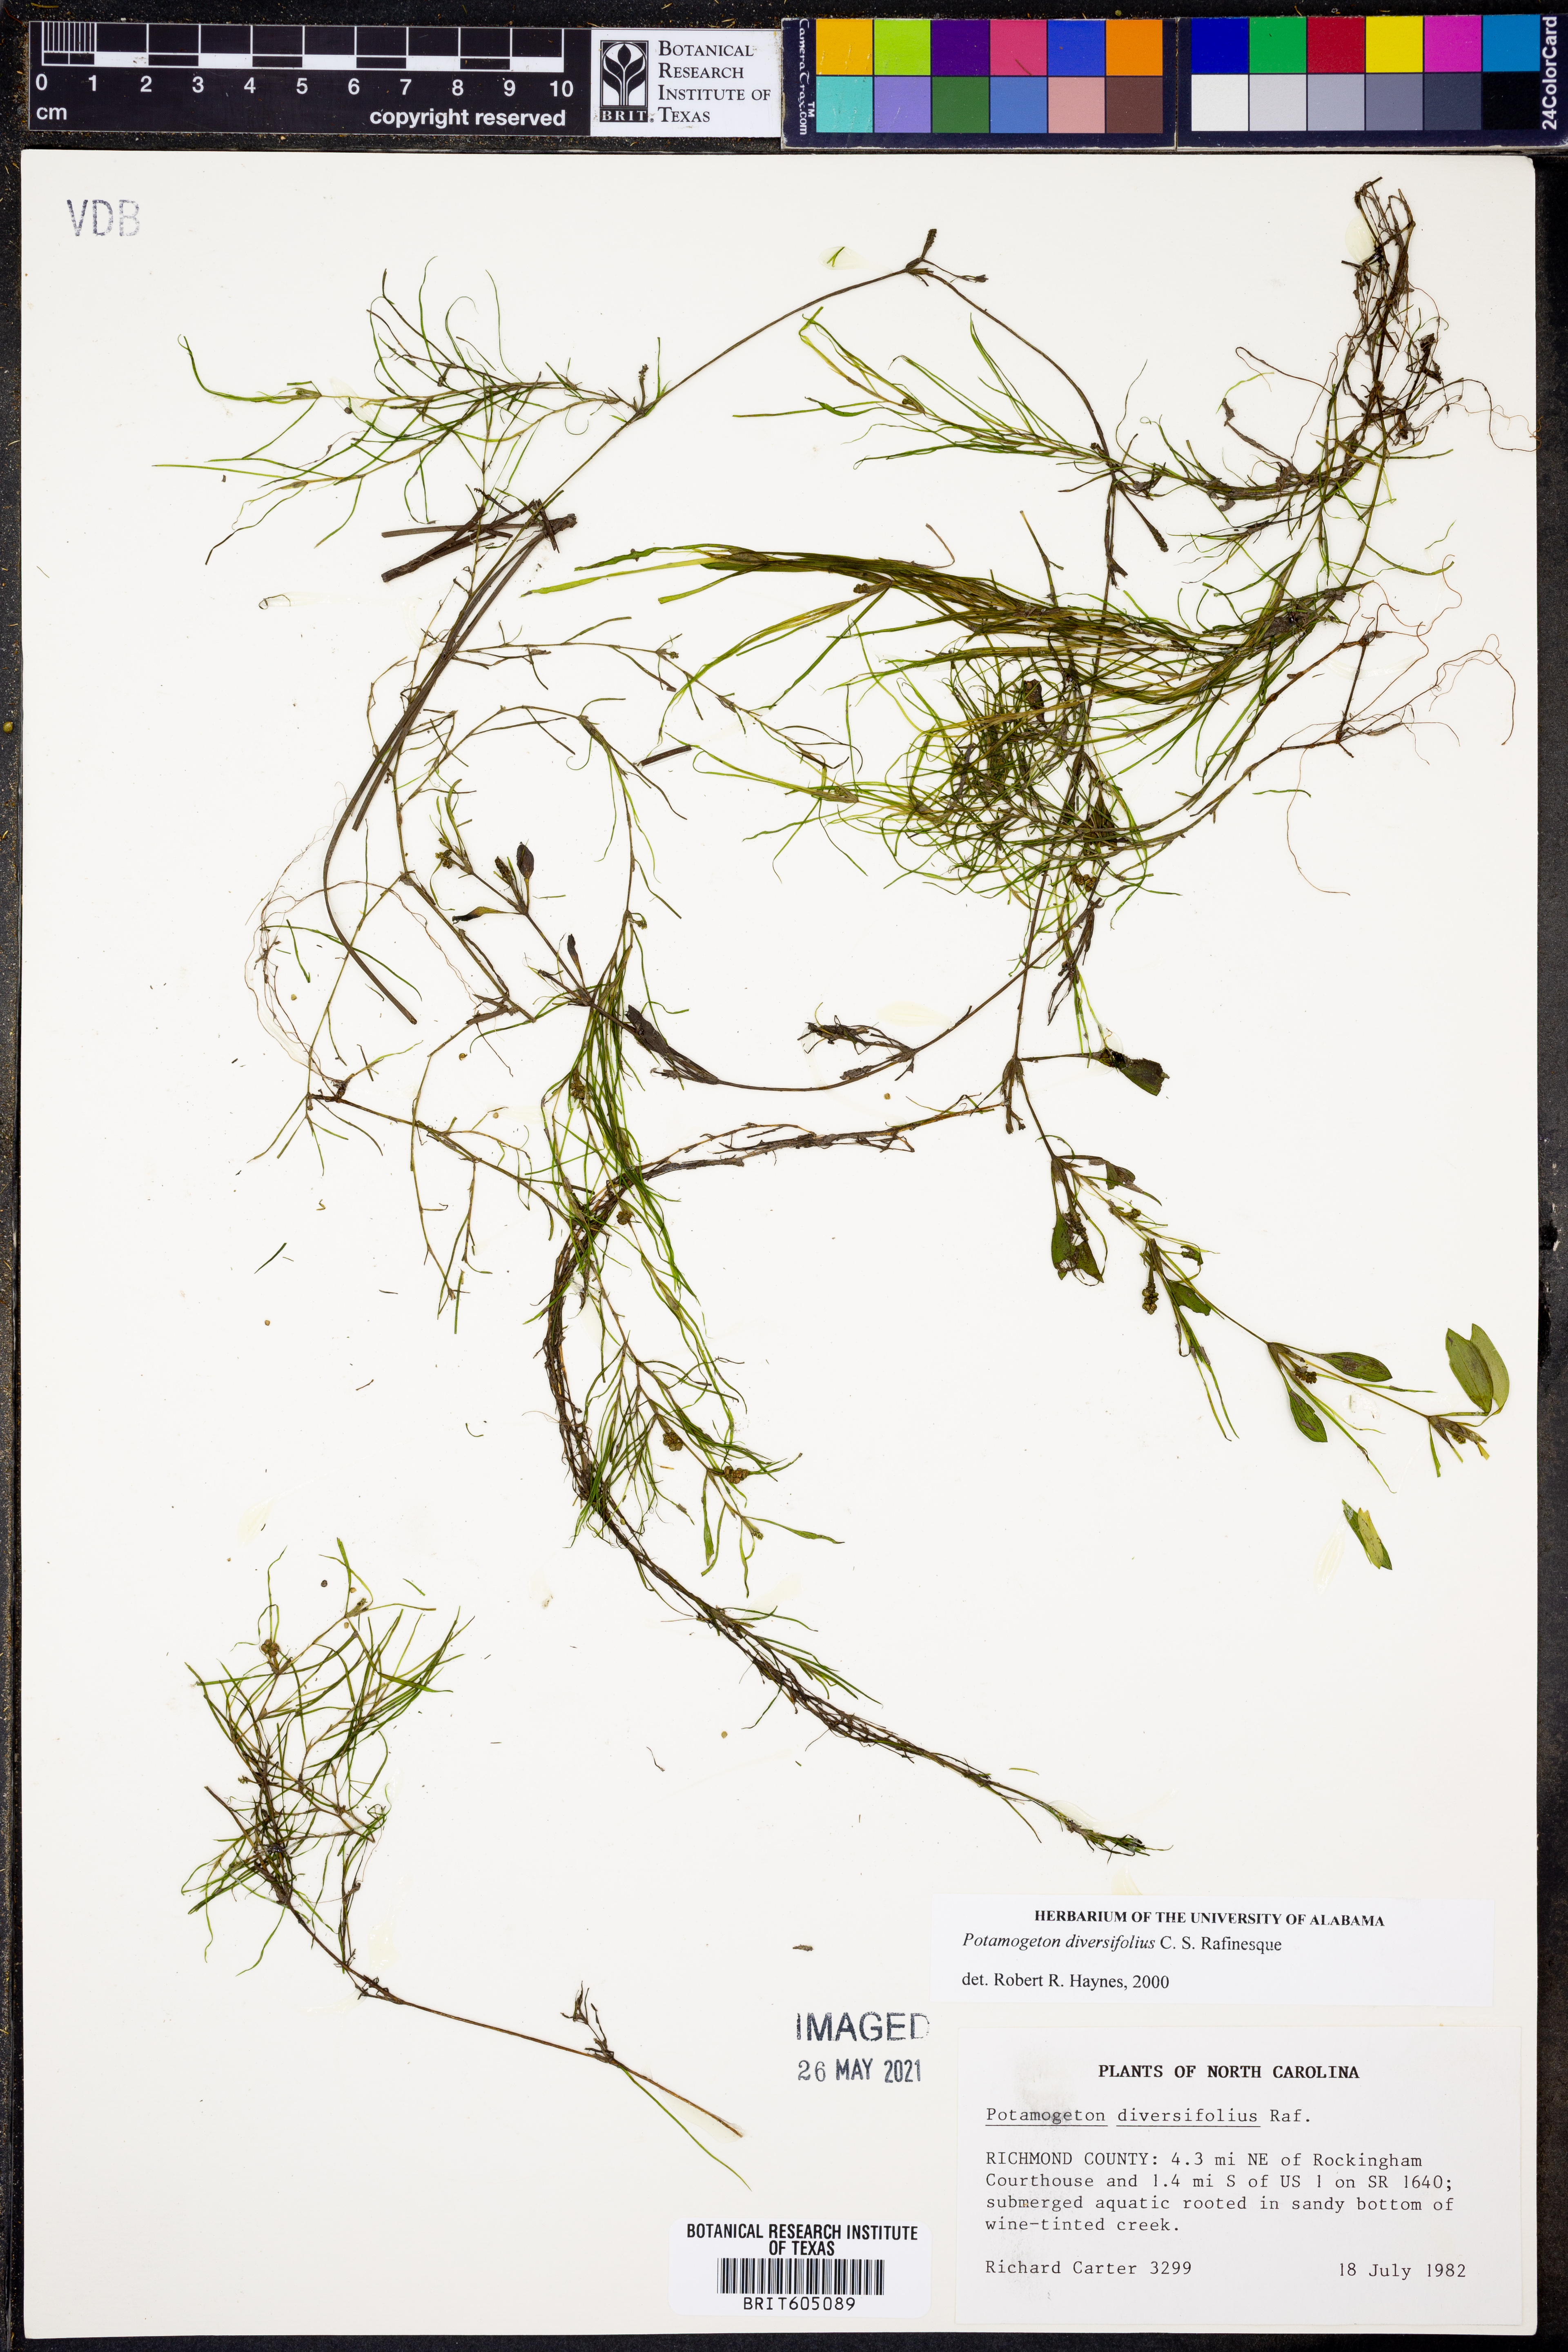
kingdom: Plantae
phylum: Tracheophyta
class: Liliopsida
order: Alismatales
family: Potamogetonaceae
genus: Potamogeton
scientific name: Potamogeton diversifolius
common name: Water-thread pondweed
